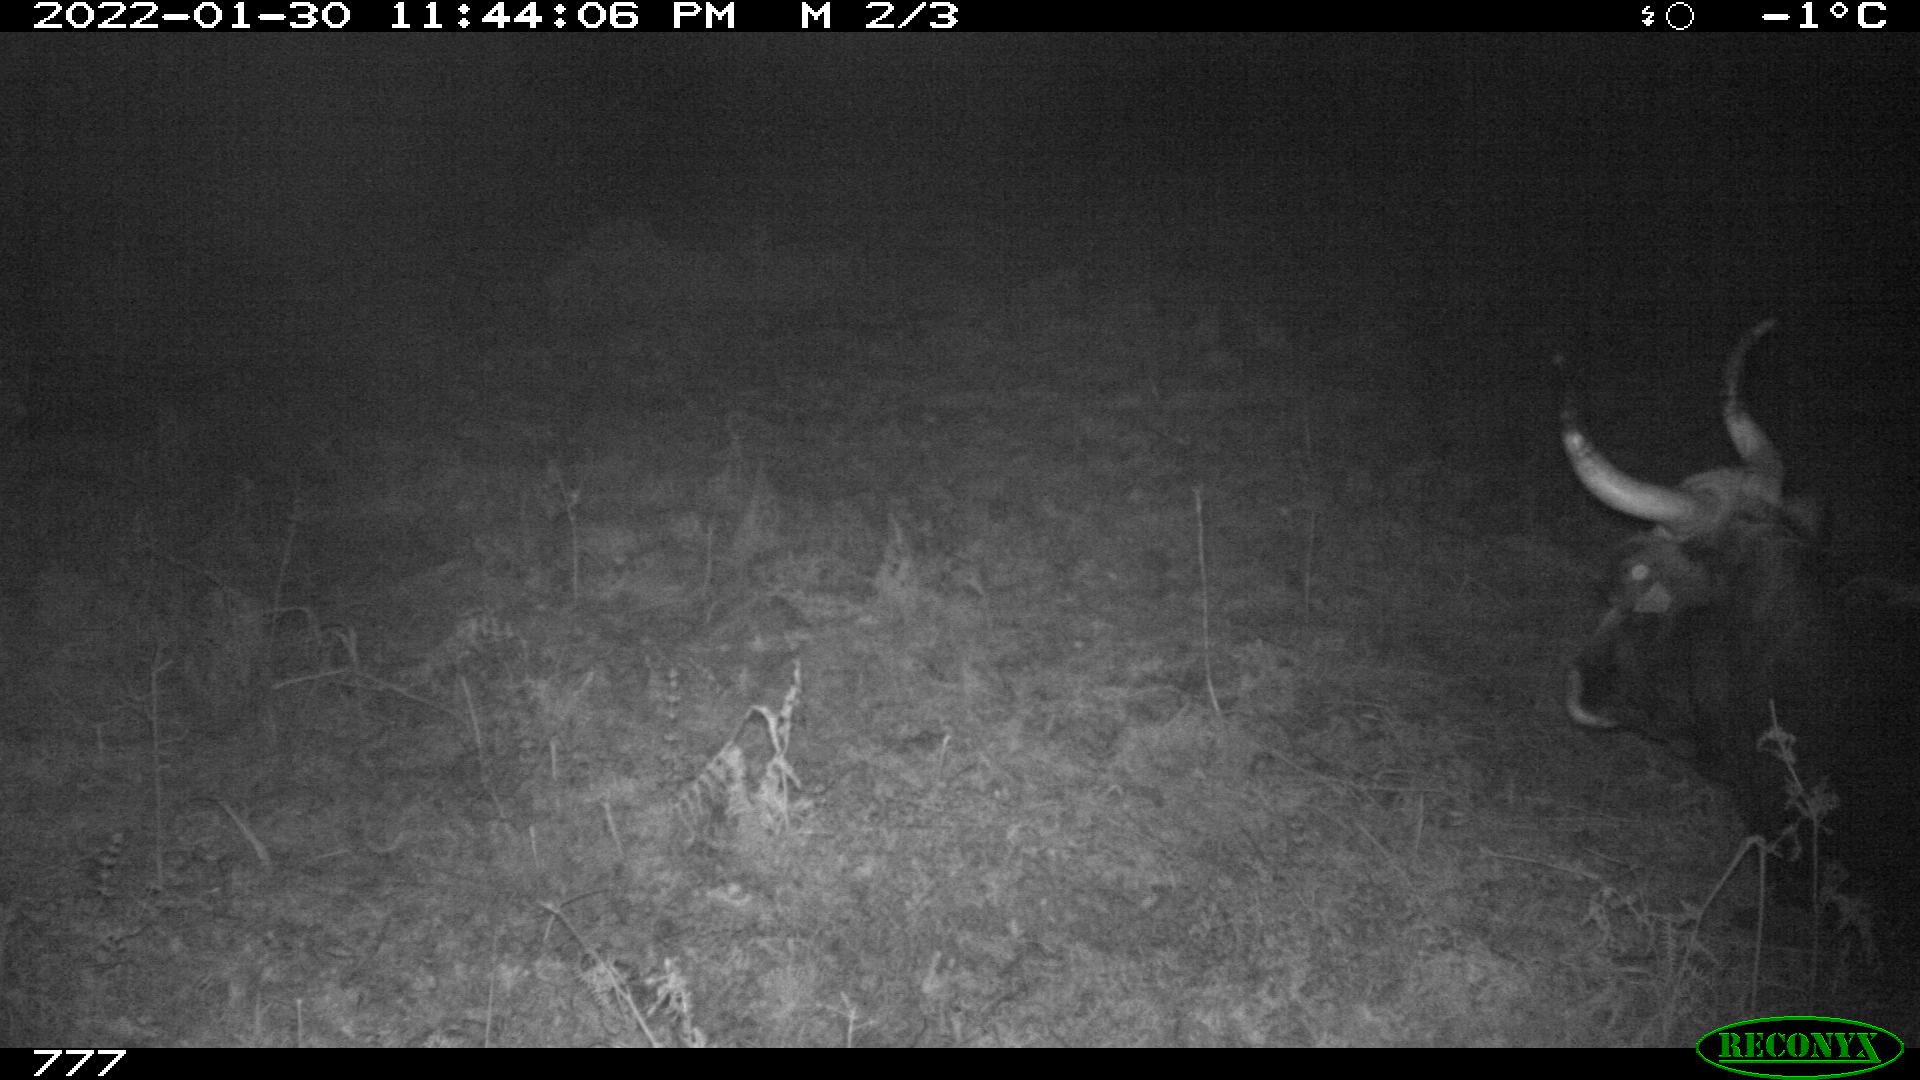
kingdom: Animalia
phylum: Chordata
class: Mammalia
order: Artiodactyla
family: Bovidae
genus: Bos
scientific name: Bos taurus
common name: Domesticated cattle
